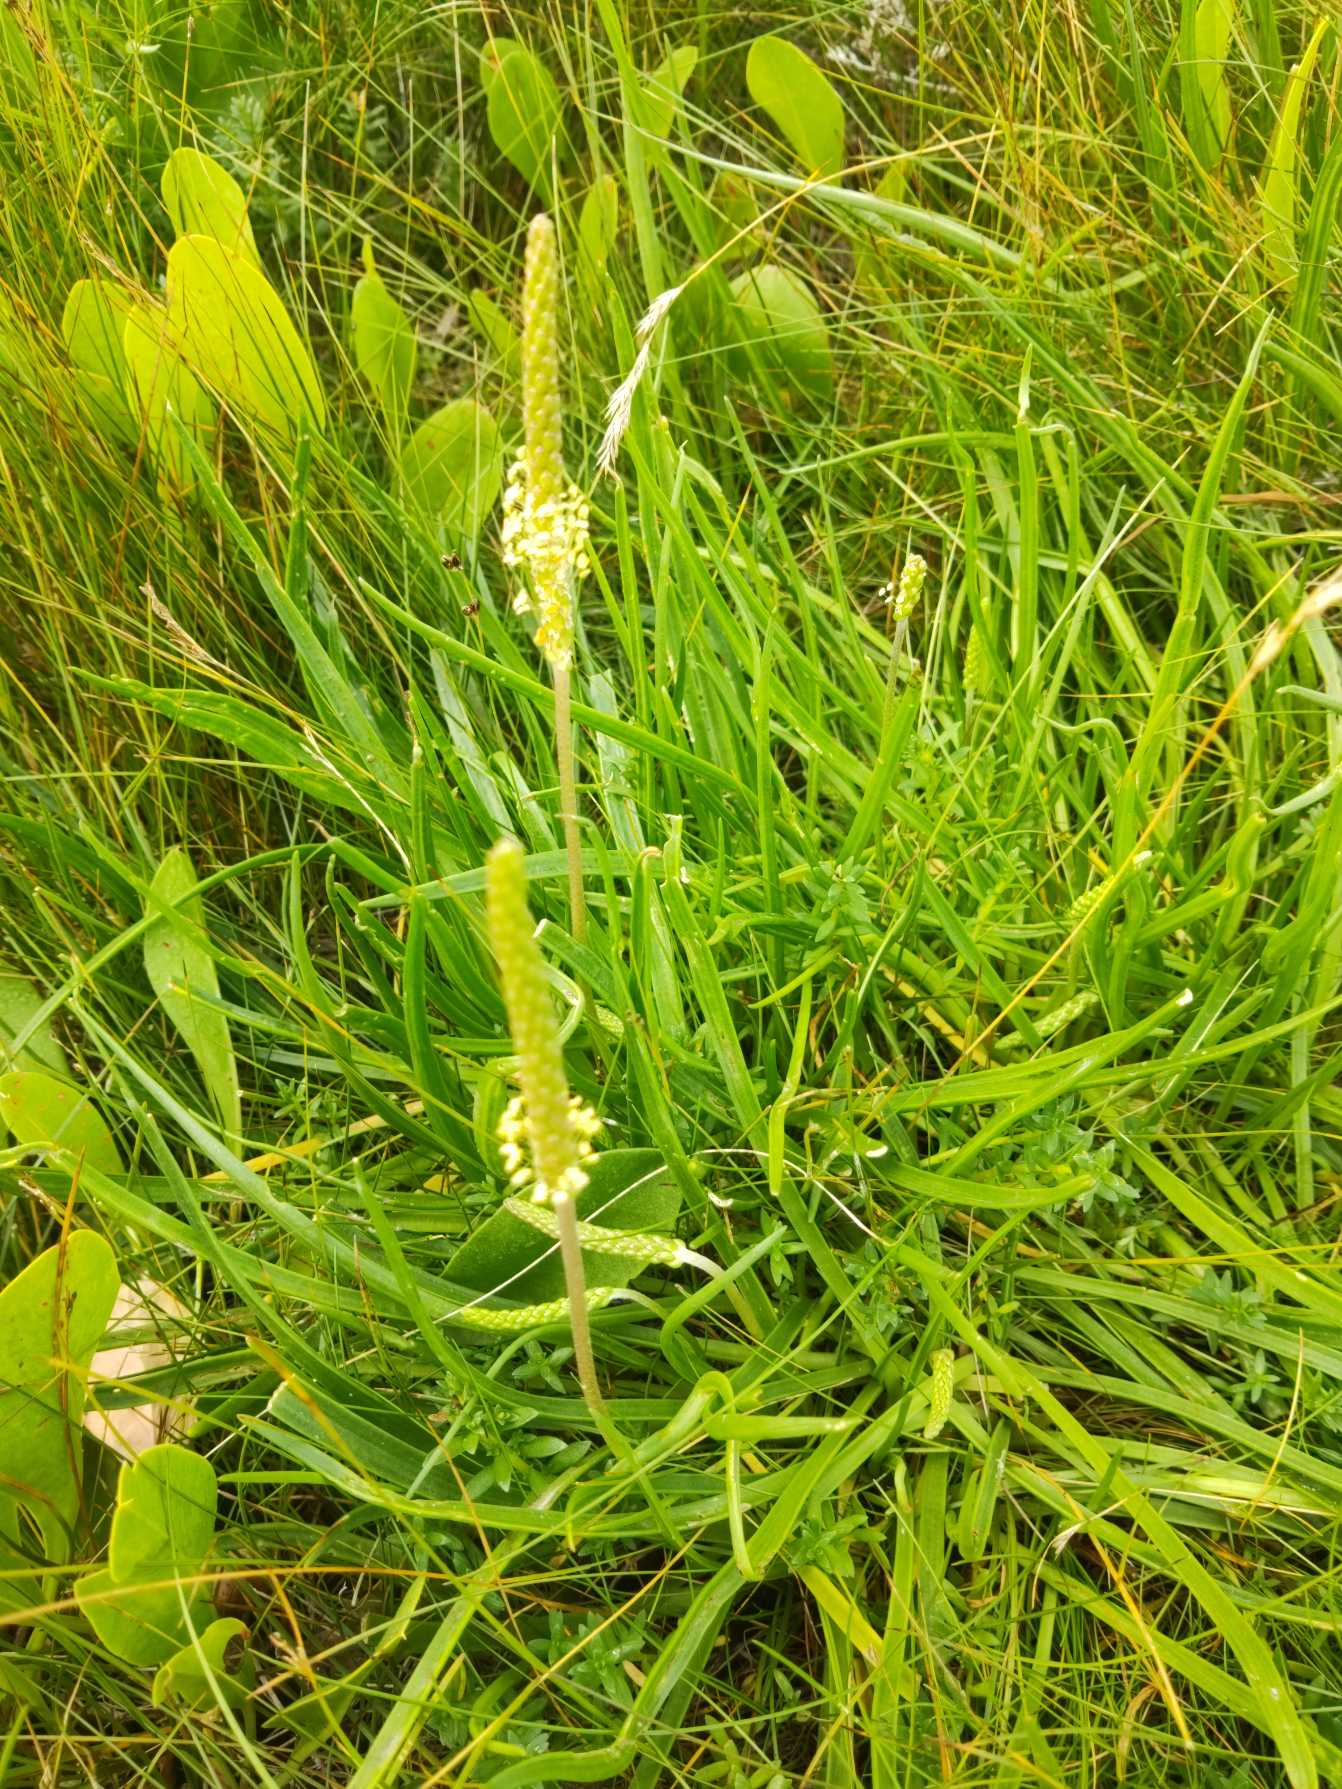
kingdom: Plantae
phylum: Tracheophyta
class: Magnoliopsida
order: Lamiales
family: Plantaginaceae
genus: Plantago
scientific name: Plantago maritima
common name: Strand-vejbred
